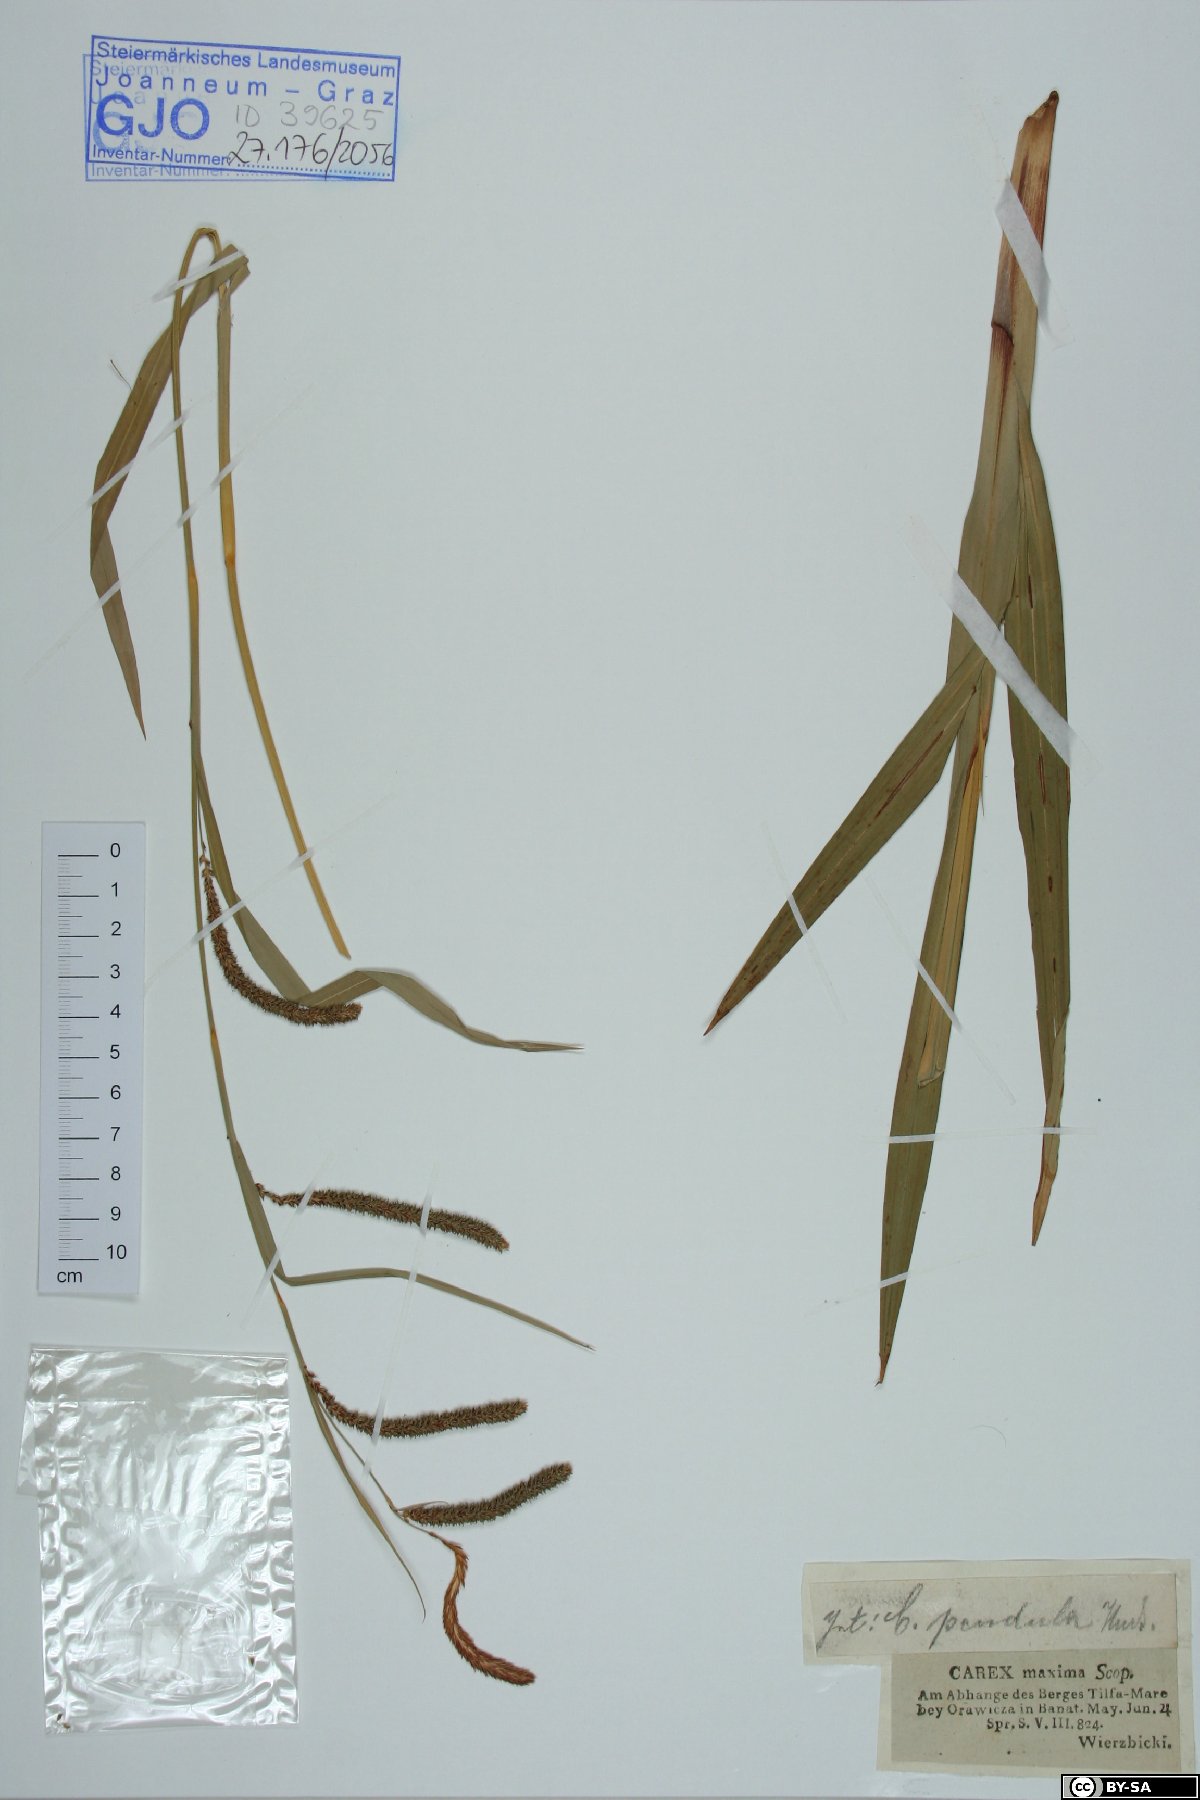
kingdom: Plantae
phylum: Tracheophyta
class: Liliopsida
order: Poales
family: Cyperaceae
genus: Carex
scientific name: Carex pendula
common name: Pendulous sedge
